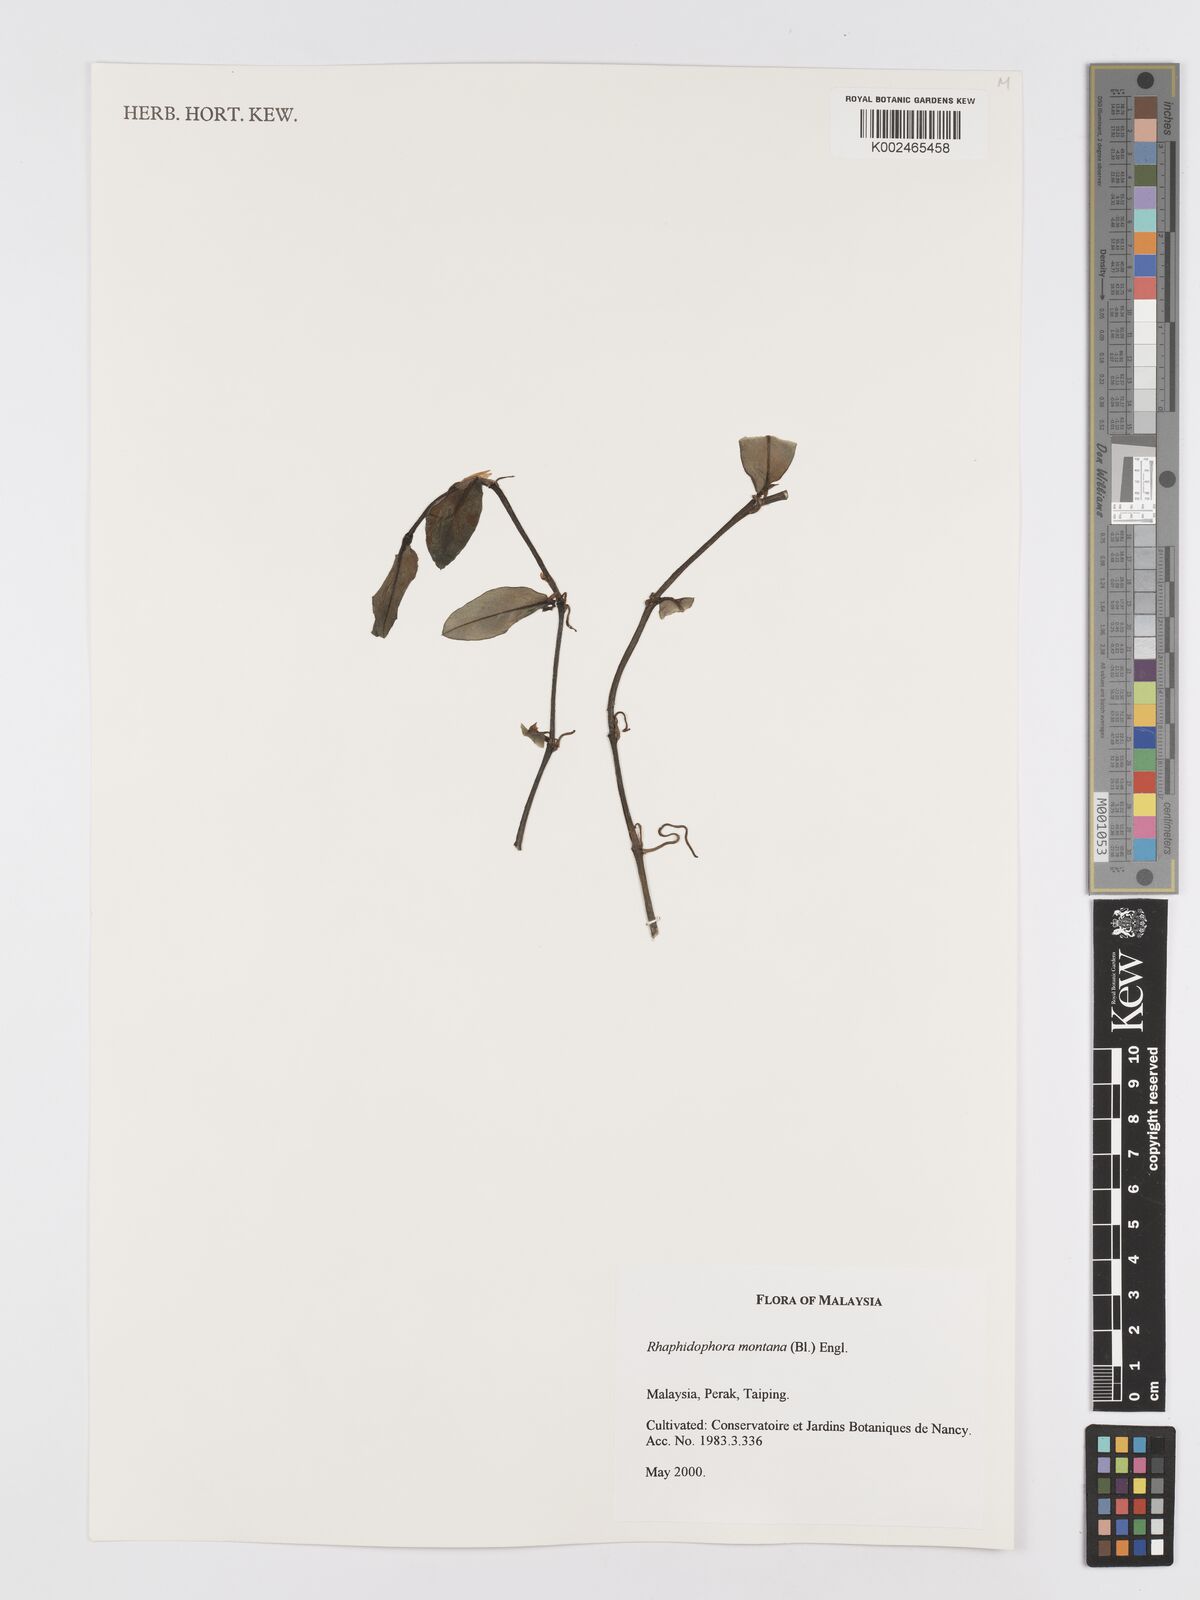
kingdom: Plantae
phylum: Tracheophyta
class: Liliopsida
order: Alismatales
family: Araceae
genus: Rhaphidophora
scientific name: Rhaphidophora montana
